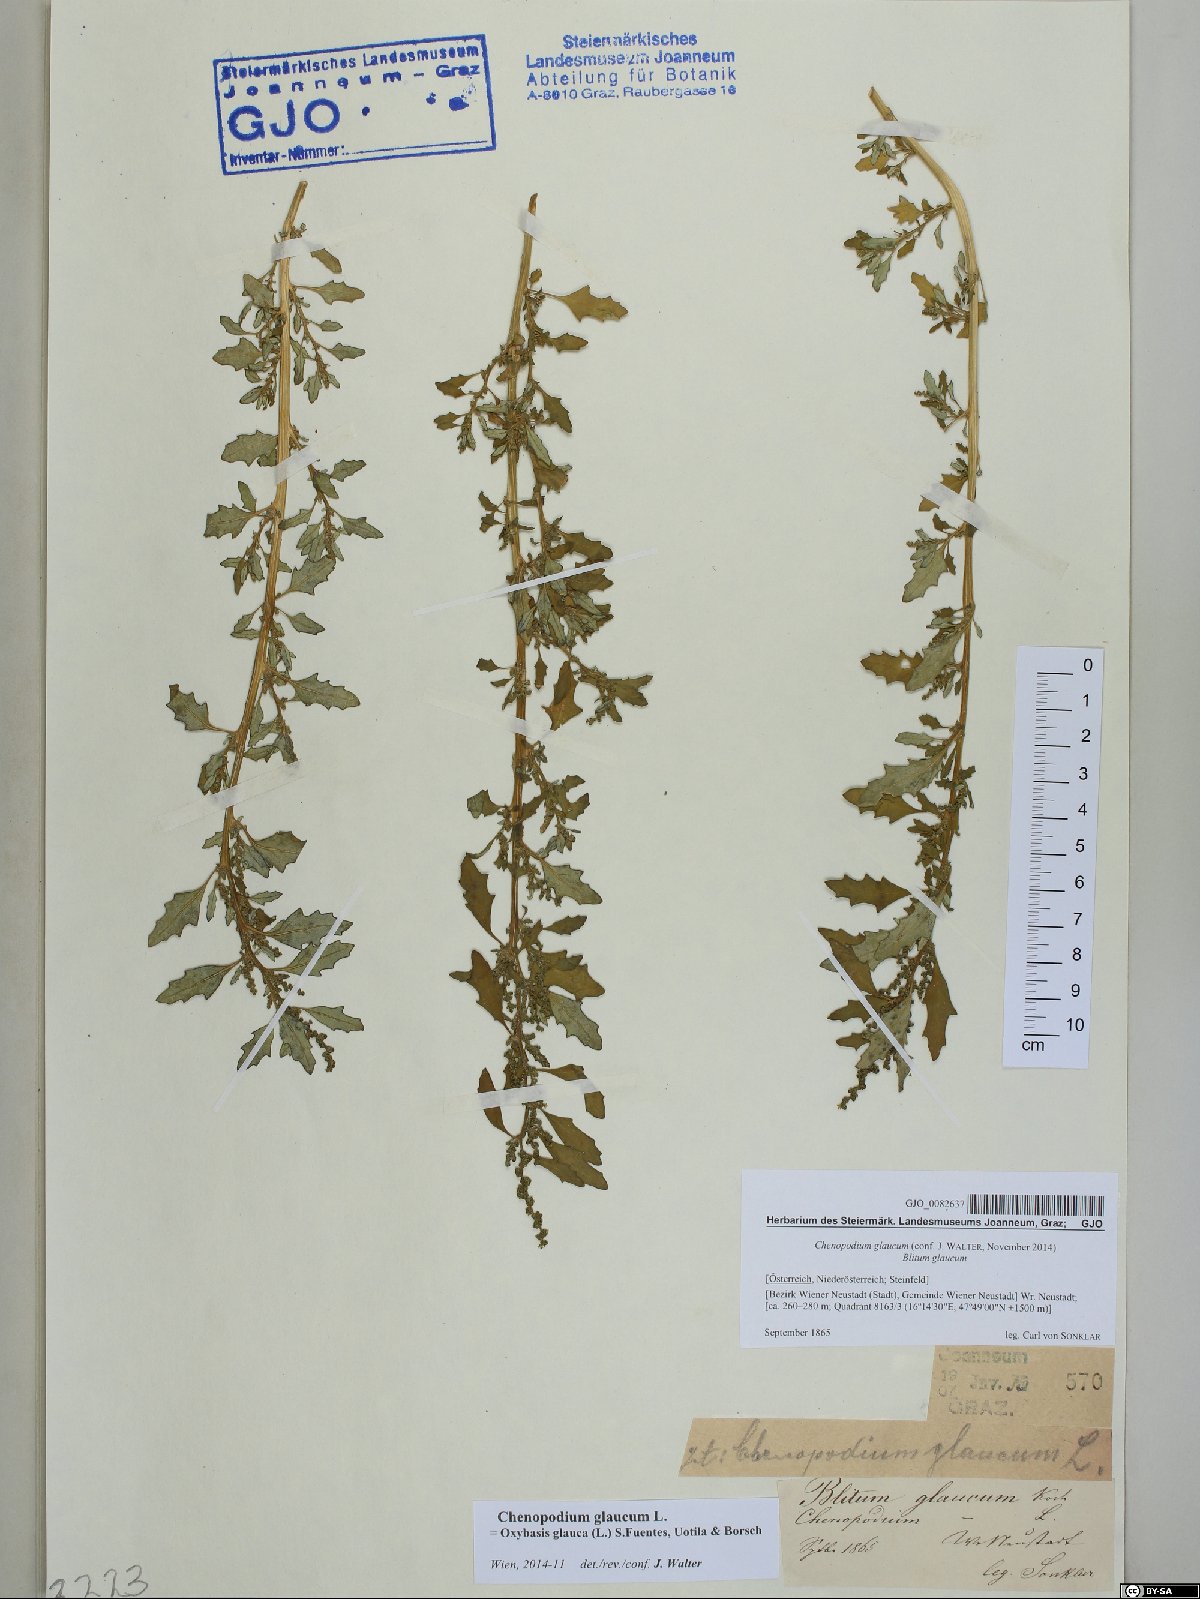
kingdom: Plantae
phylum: Tracheophyta
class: Magnoliopsida
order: Caryophyllales
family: Amaranthaceae
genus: Oxybasis
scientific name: Oxybasis glauca
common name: Glaucous goosefoot
